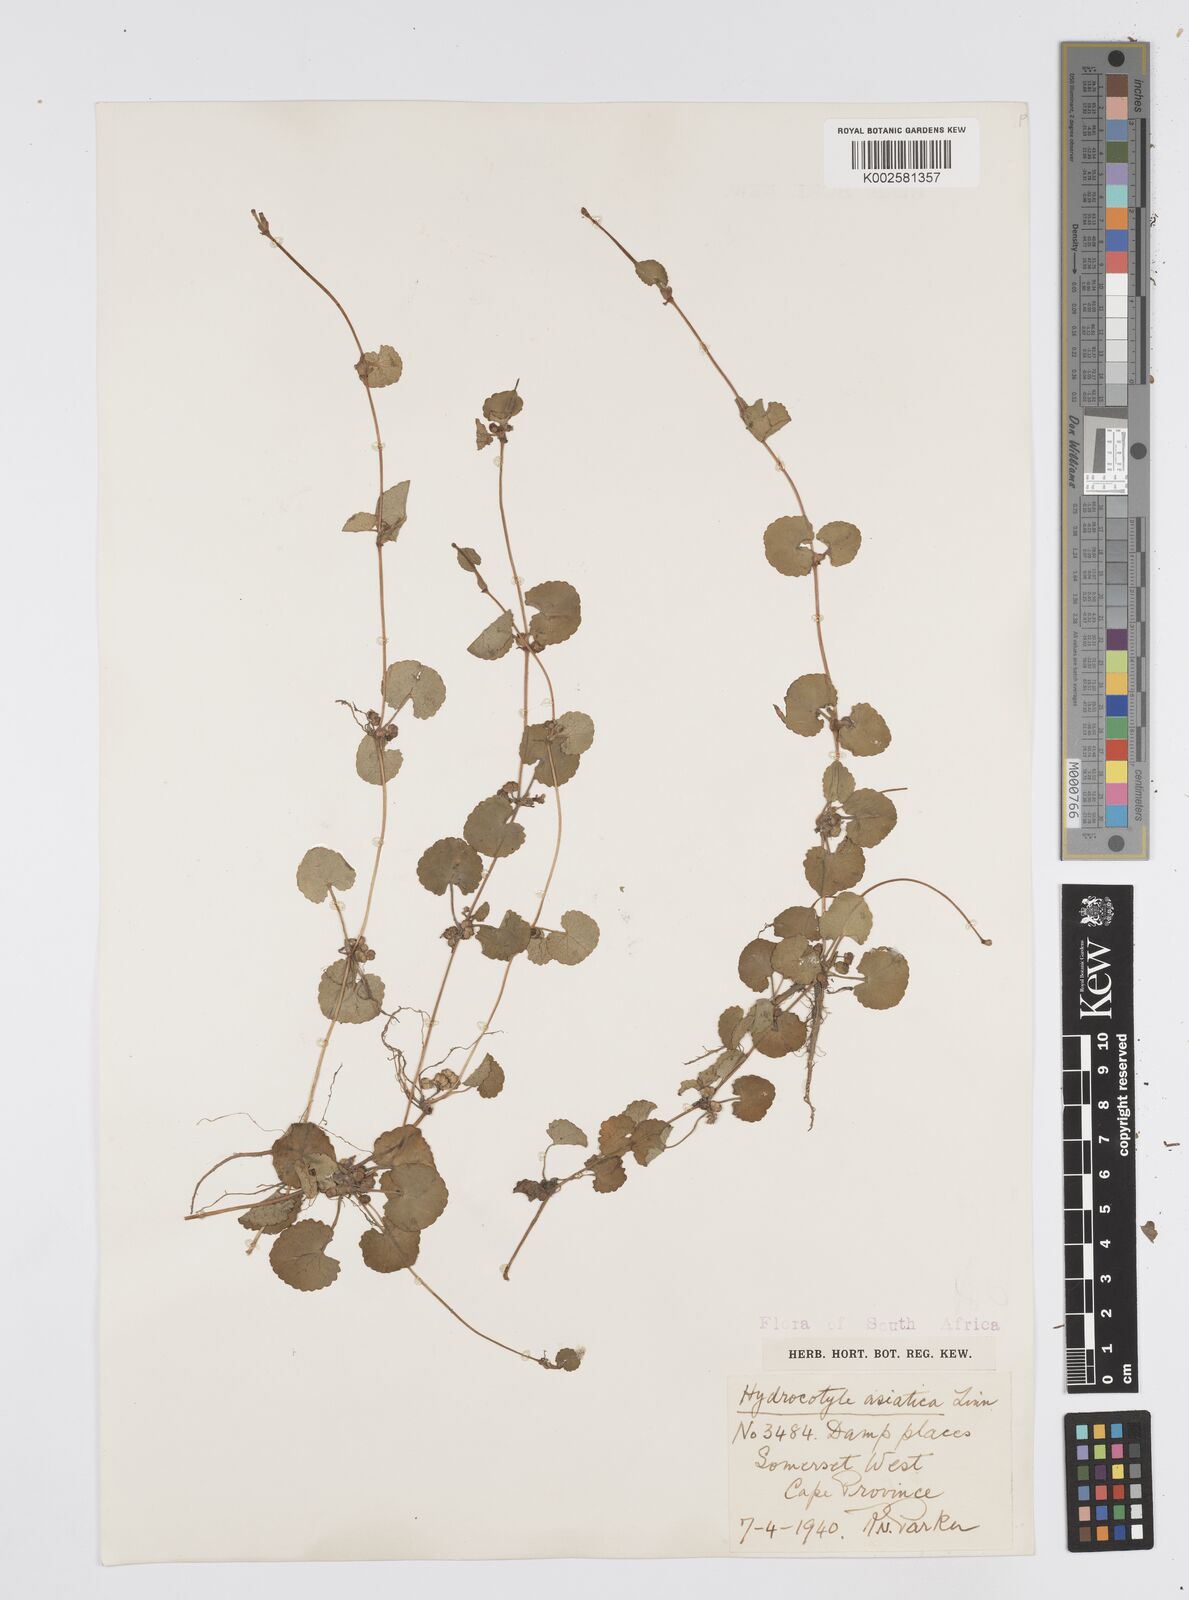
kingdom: Plantae
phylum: Tracheophyta
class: Magnoliopsida
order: Apiales
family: Apiaceae
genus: Centella
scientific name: Centella
